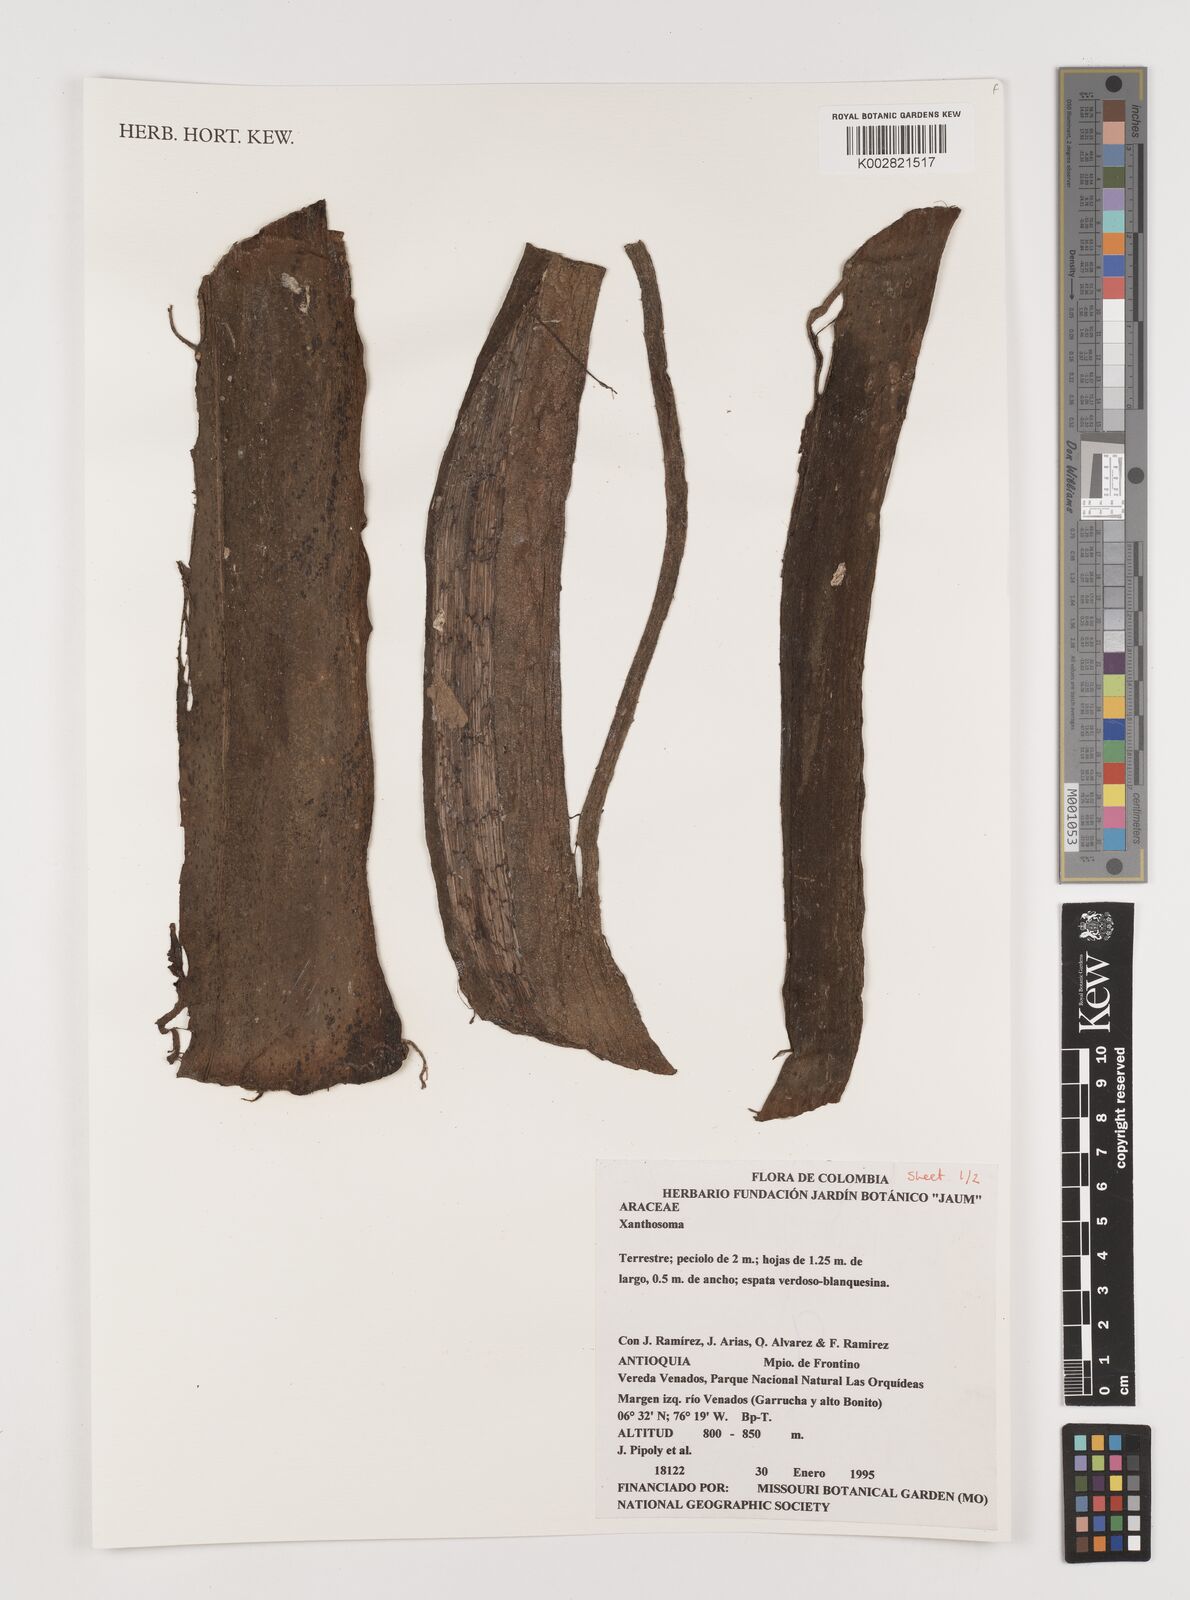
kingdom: Plantae
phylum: Tracheophyta
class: Liliopsida
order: Alismatales
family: Araceae
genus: Xanthosoma
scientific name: Xanthosoma
